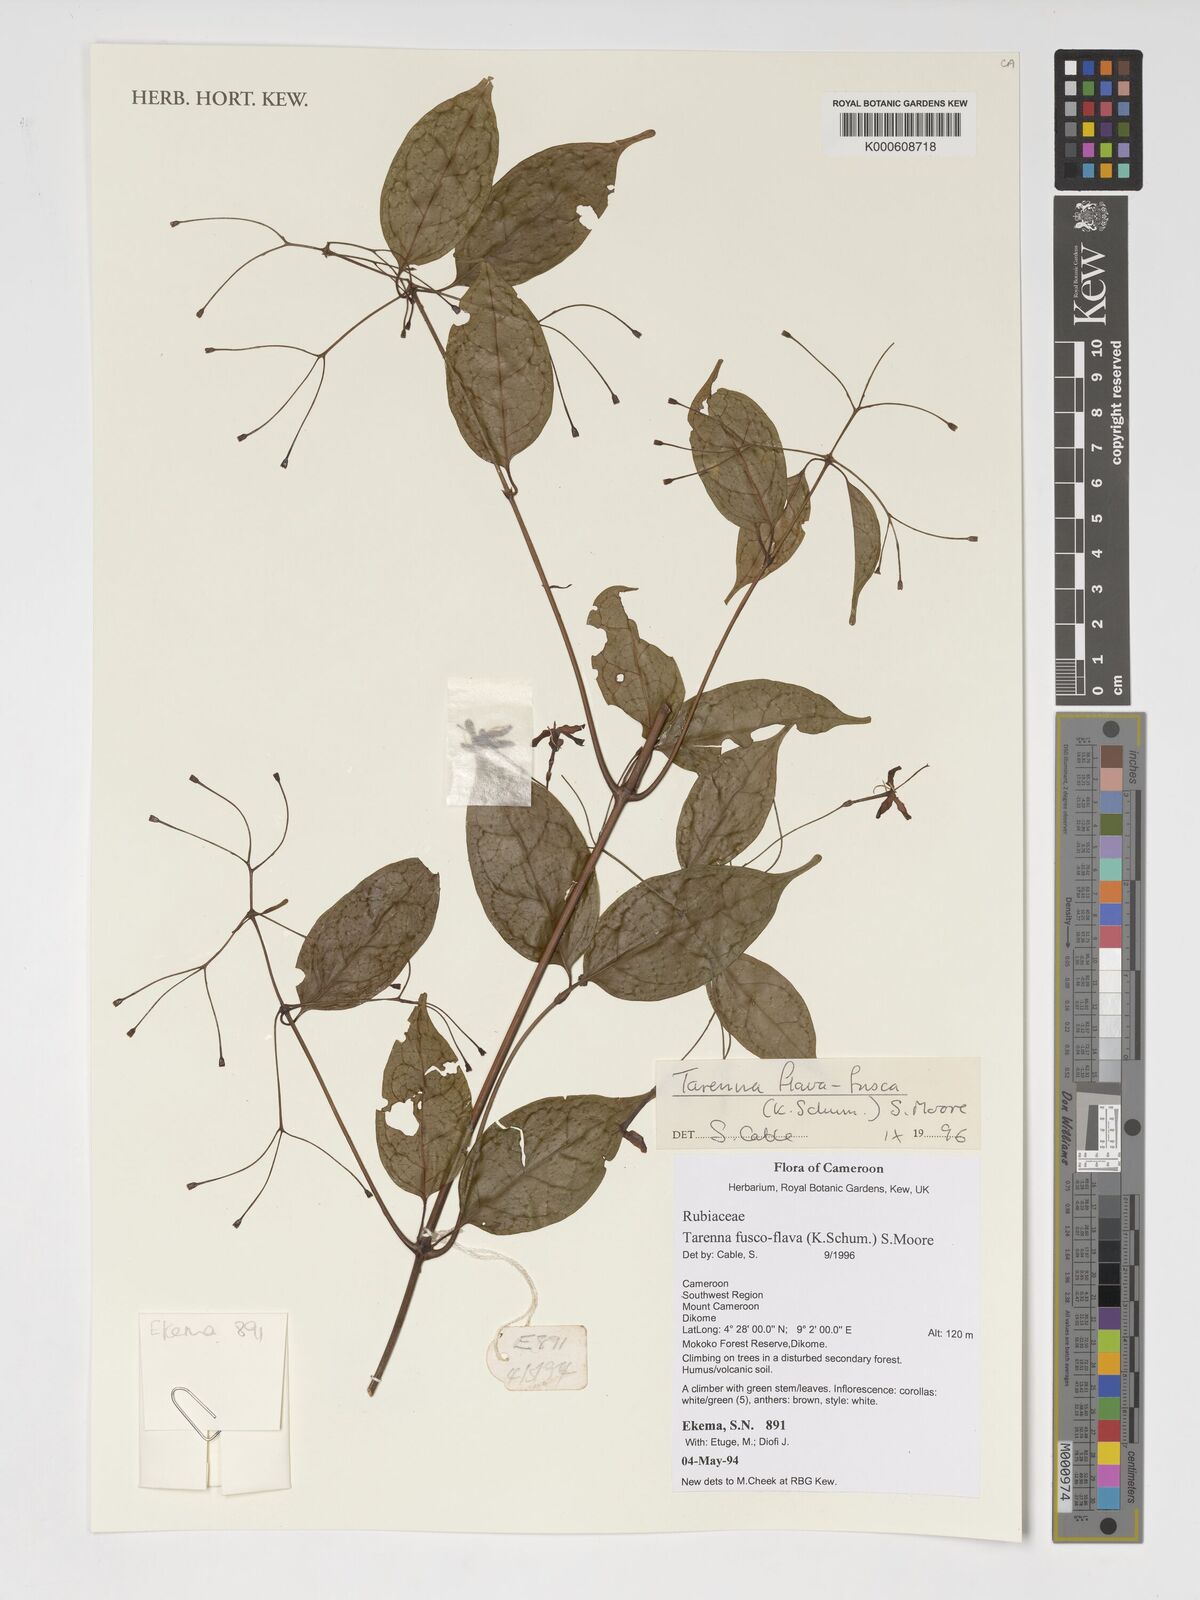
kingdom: Plantae
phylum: Tracheophyta
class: Magnoliopsida
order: Gentianales
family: Rubiaceae
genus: Tarenna
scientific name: Tarenna
